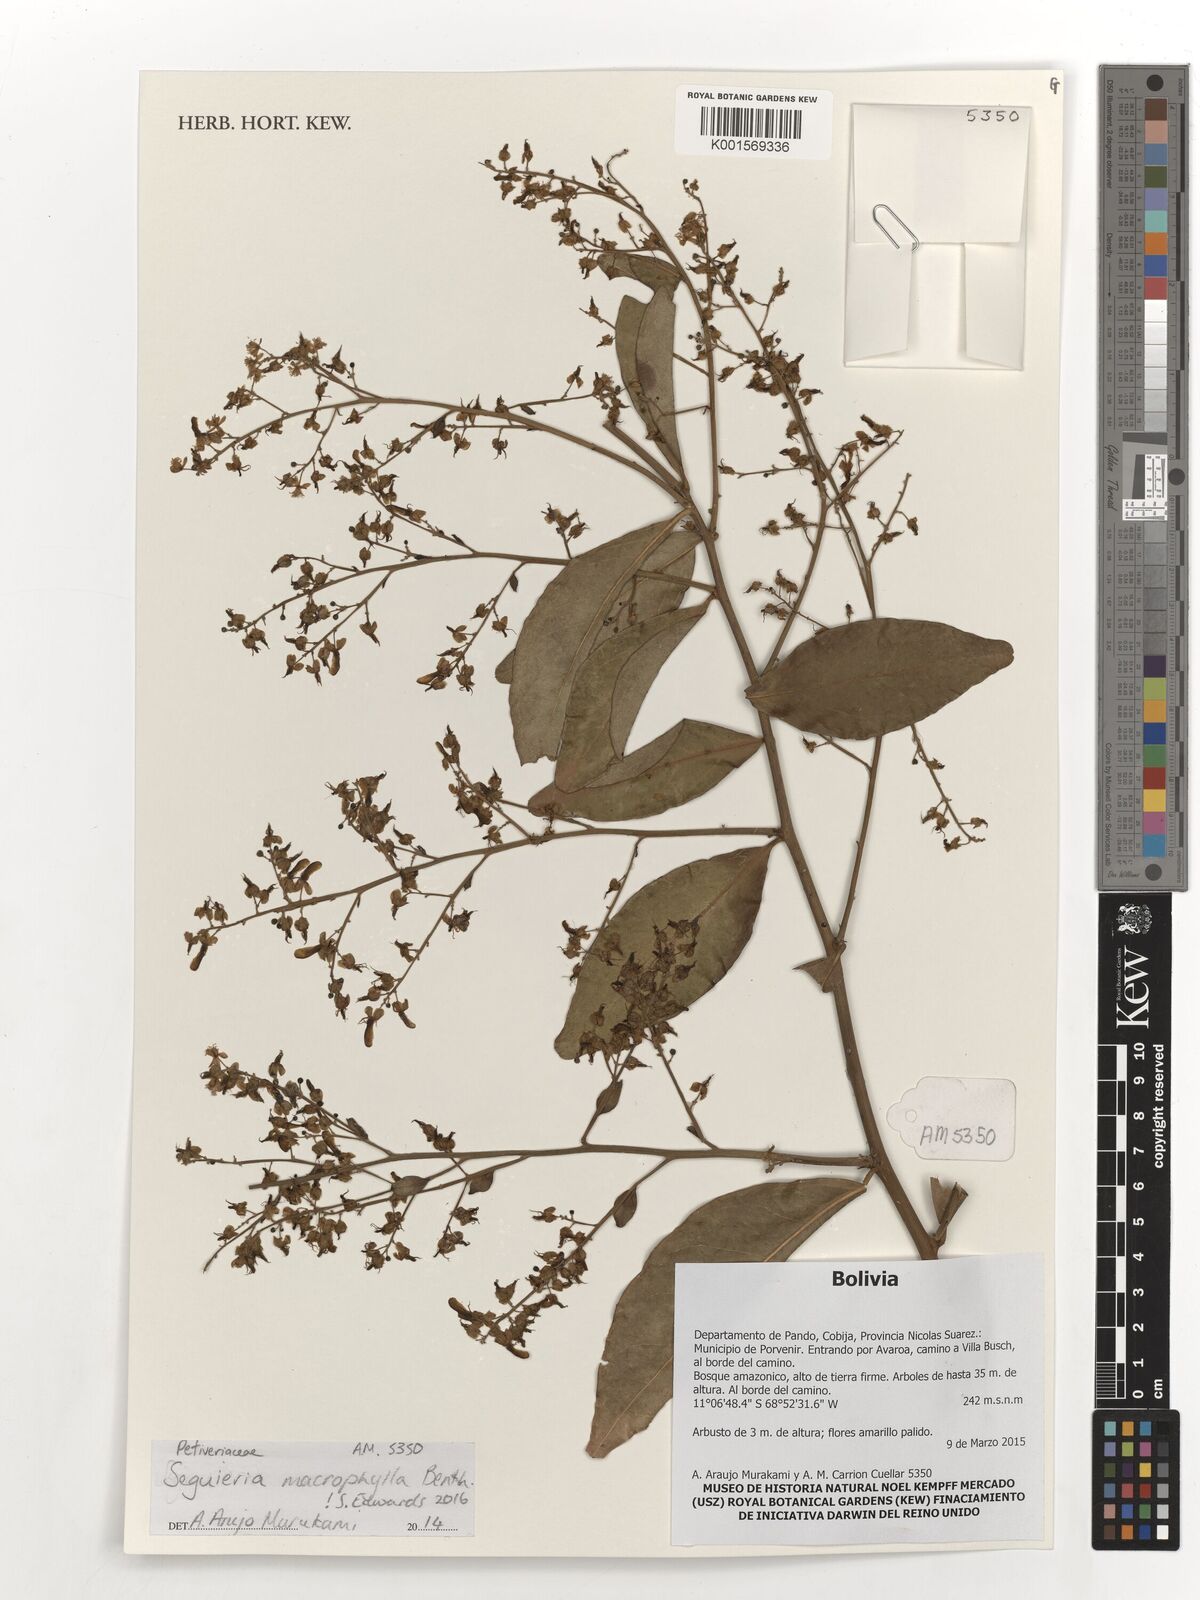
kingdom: Plantae
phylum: Tracheophyta
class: Magnoliopsida
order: Caryophyllales
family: Phytolaccaceae
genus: Seguieria
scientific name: Seguieria macrophylla
